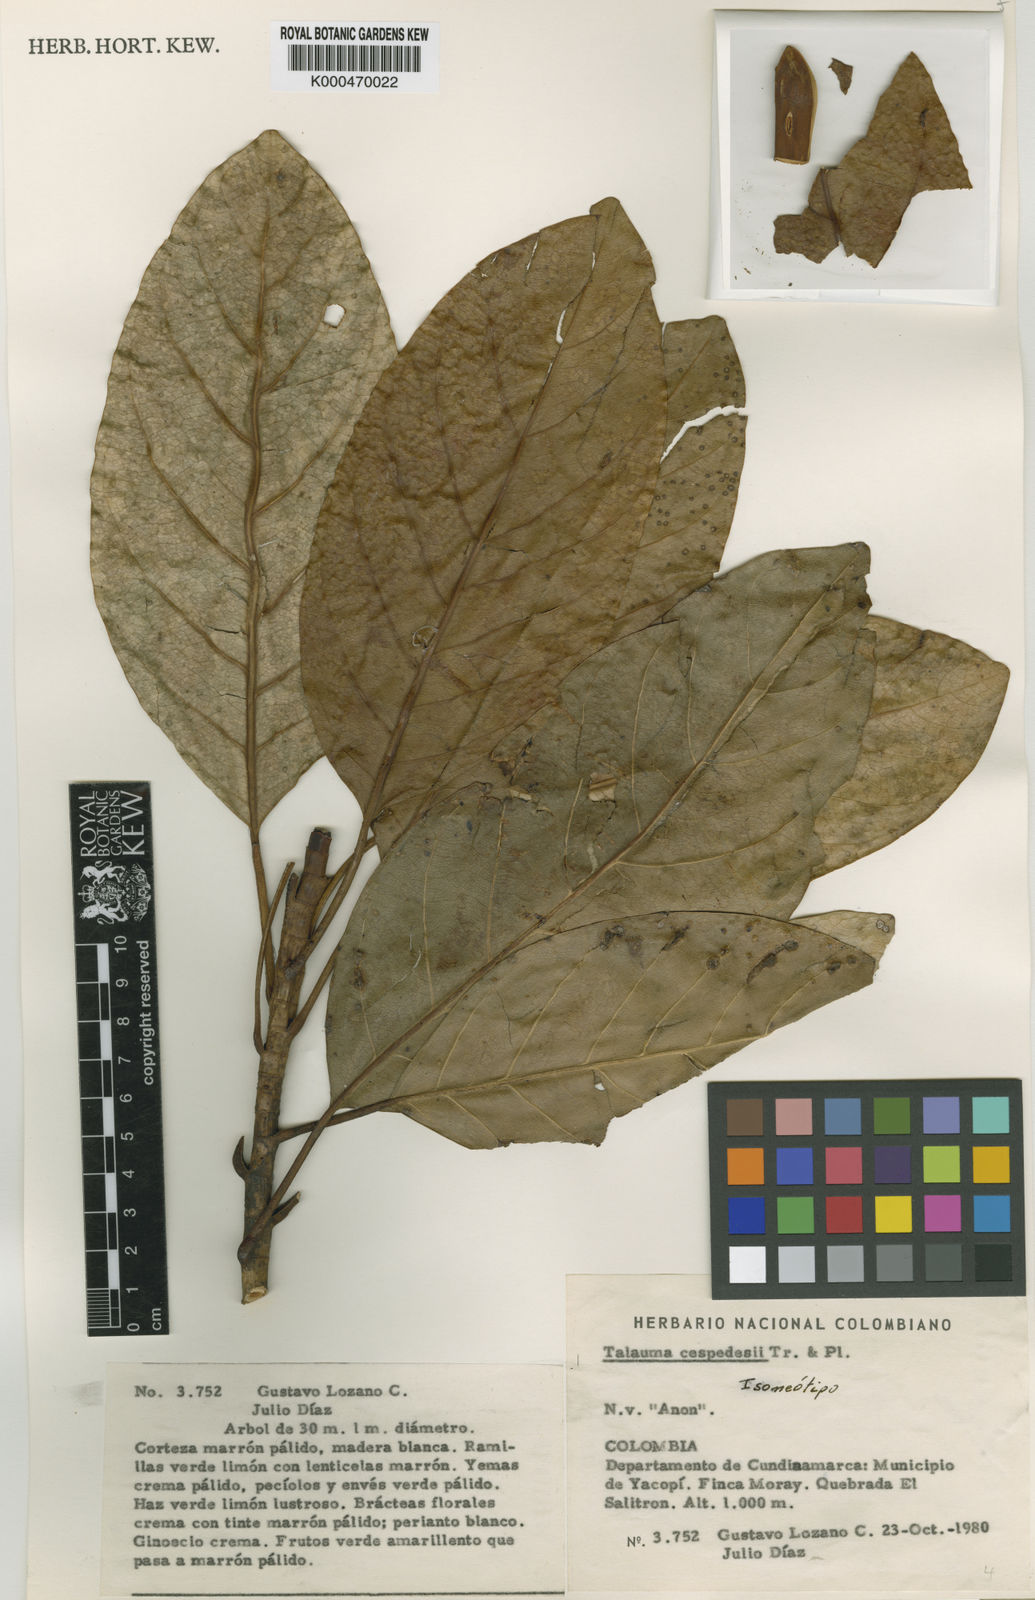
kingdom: Plantae
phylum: Tracheophyta
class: Magnoliopsida
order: Magnoliales
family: Magnoliaceae
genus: Magnolia
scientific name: Magnolia cespedesii
